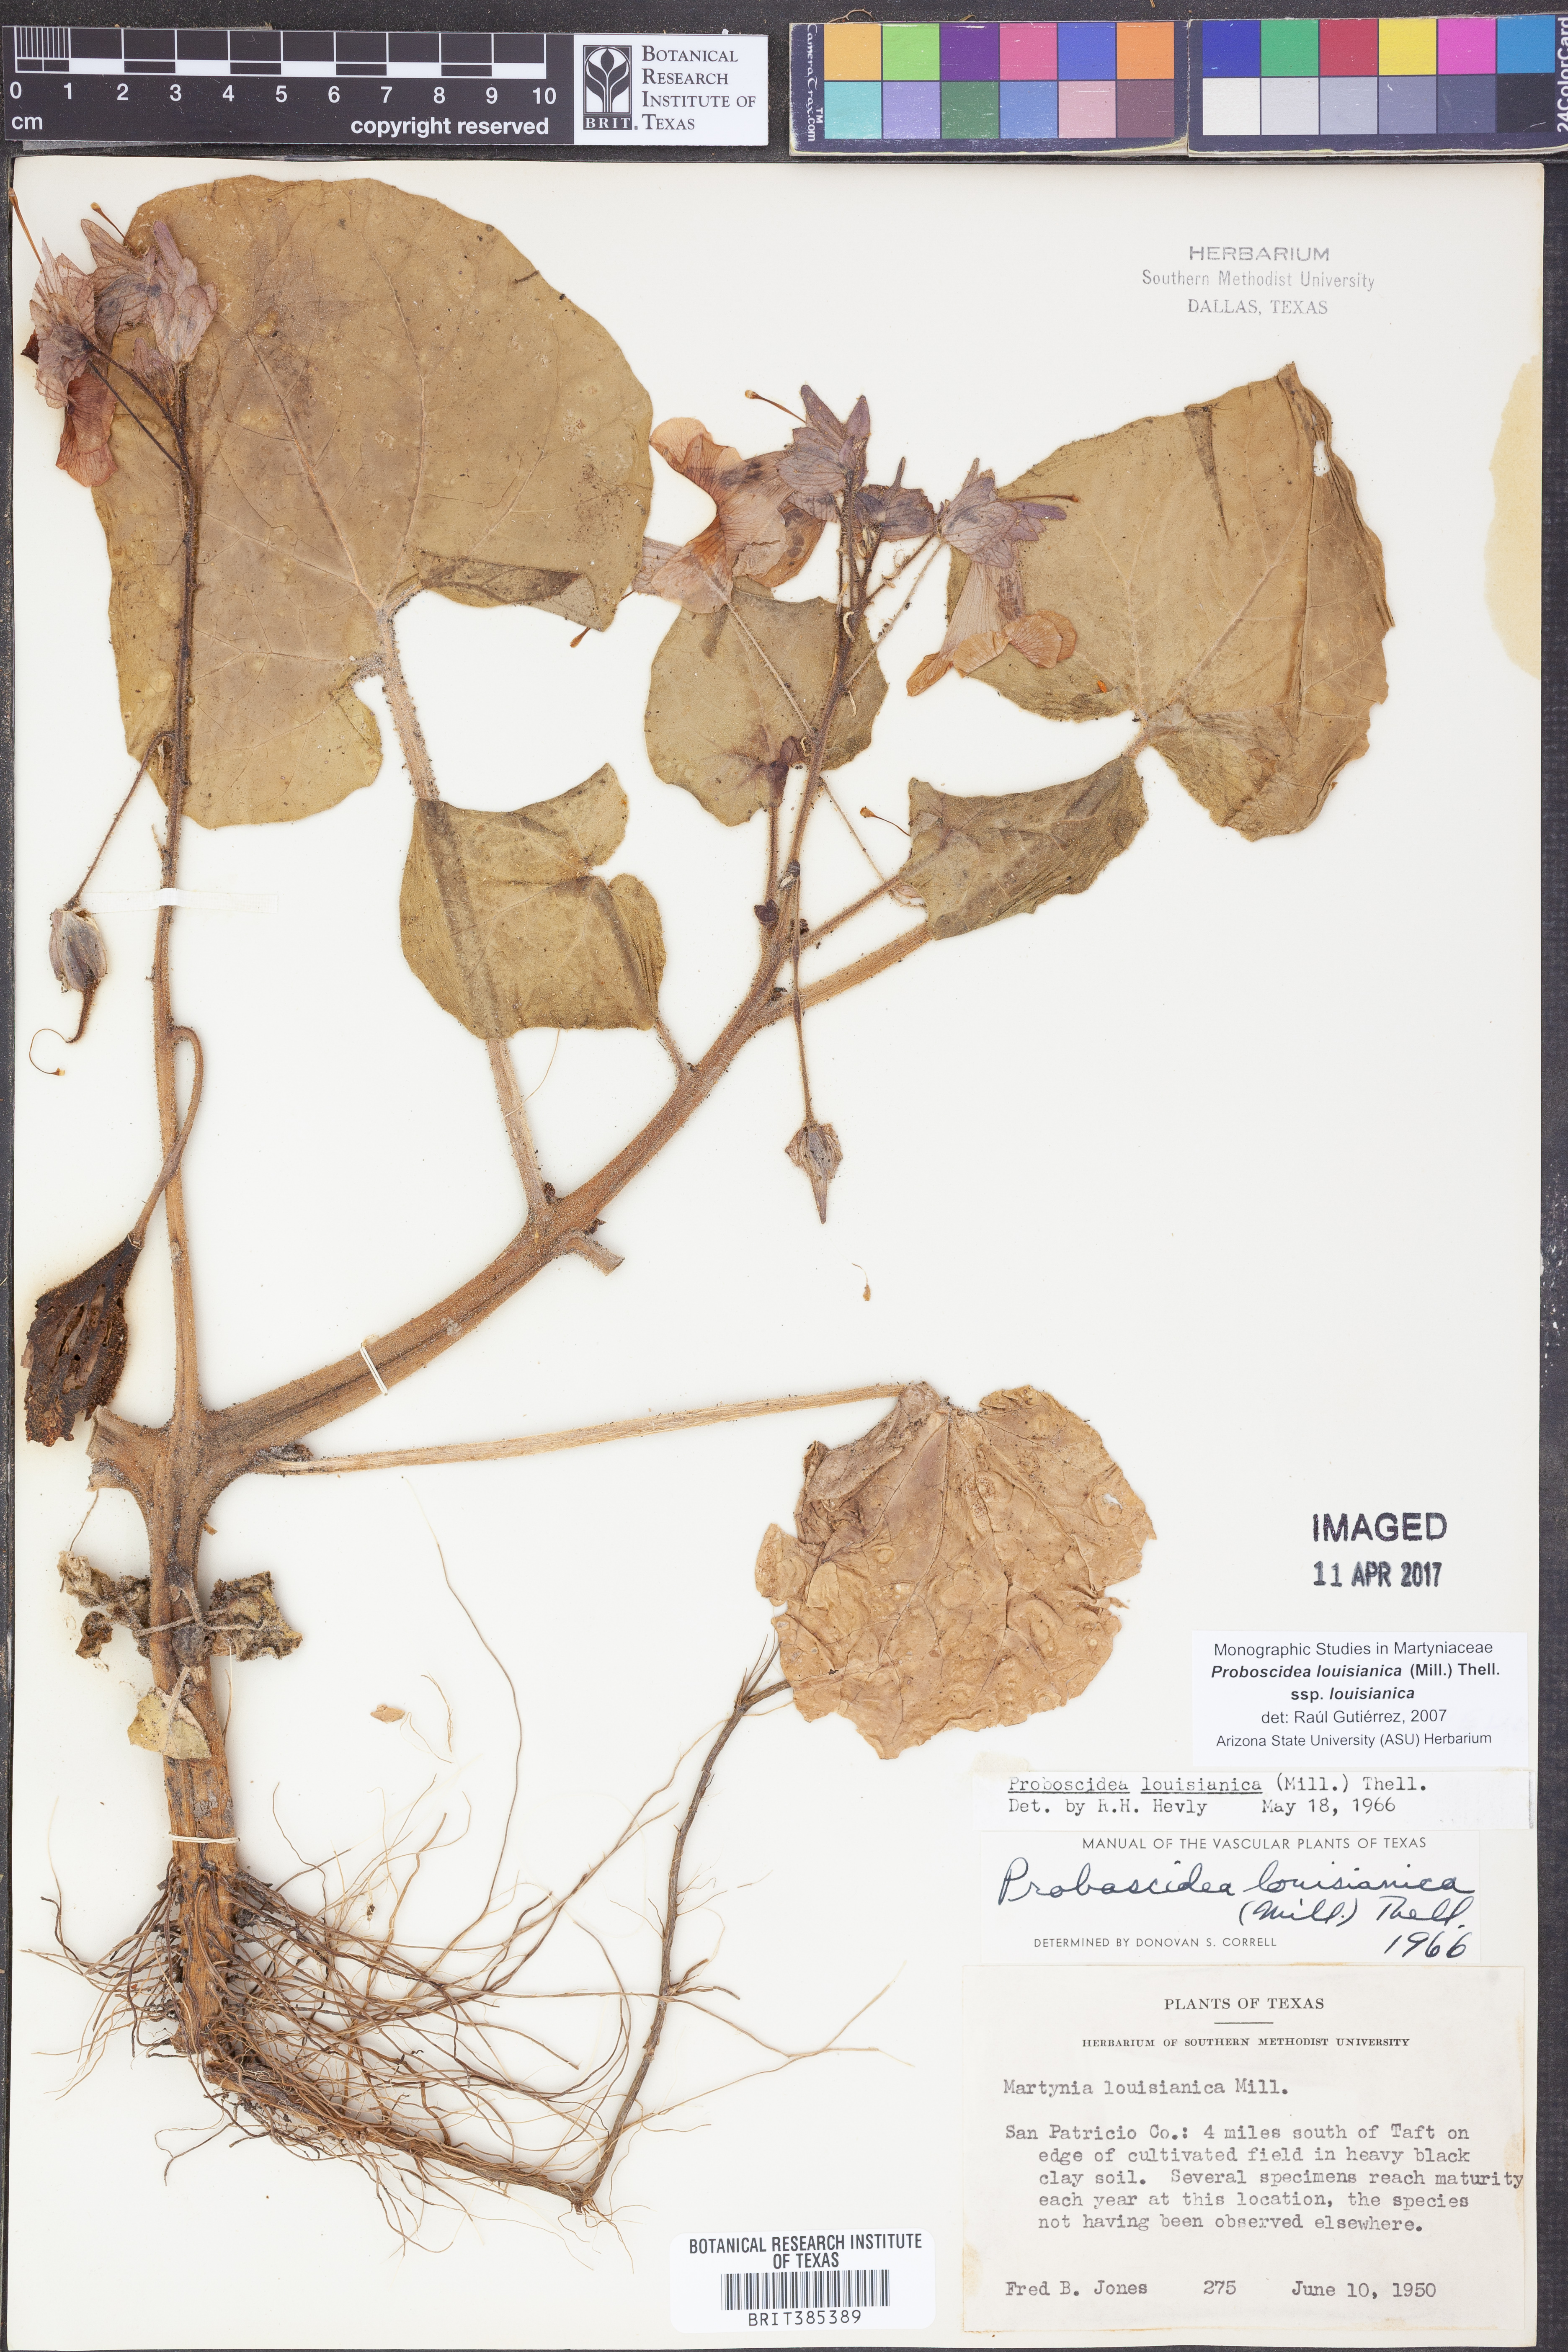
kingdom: Plantae
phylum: Tracheophyta
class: Magnoliopsida
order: Lamiales
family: Martyniaceae
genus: Proboscidea
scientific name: Proboscidea louisianica
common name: Elephant tusks
